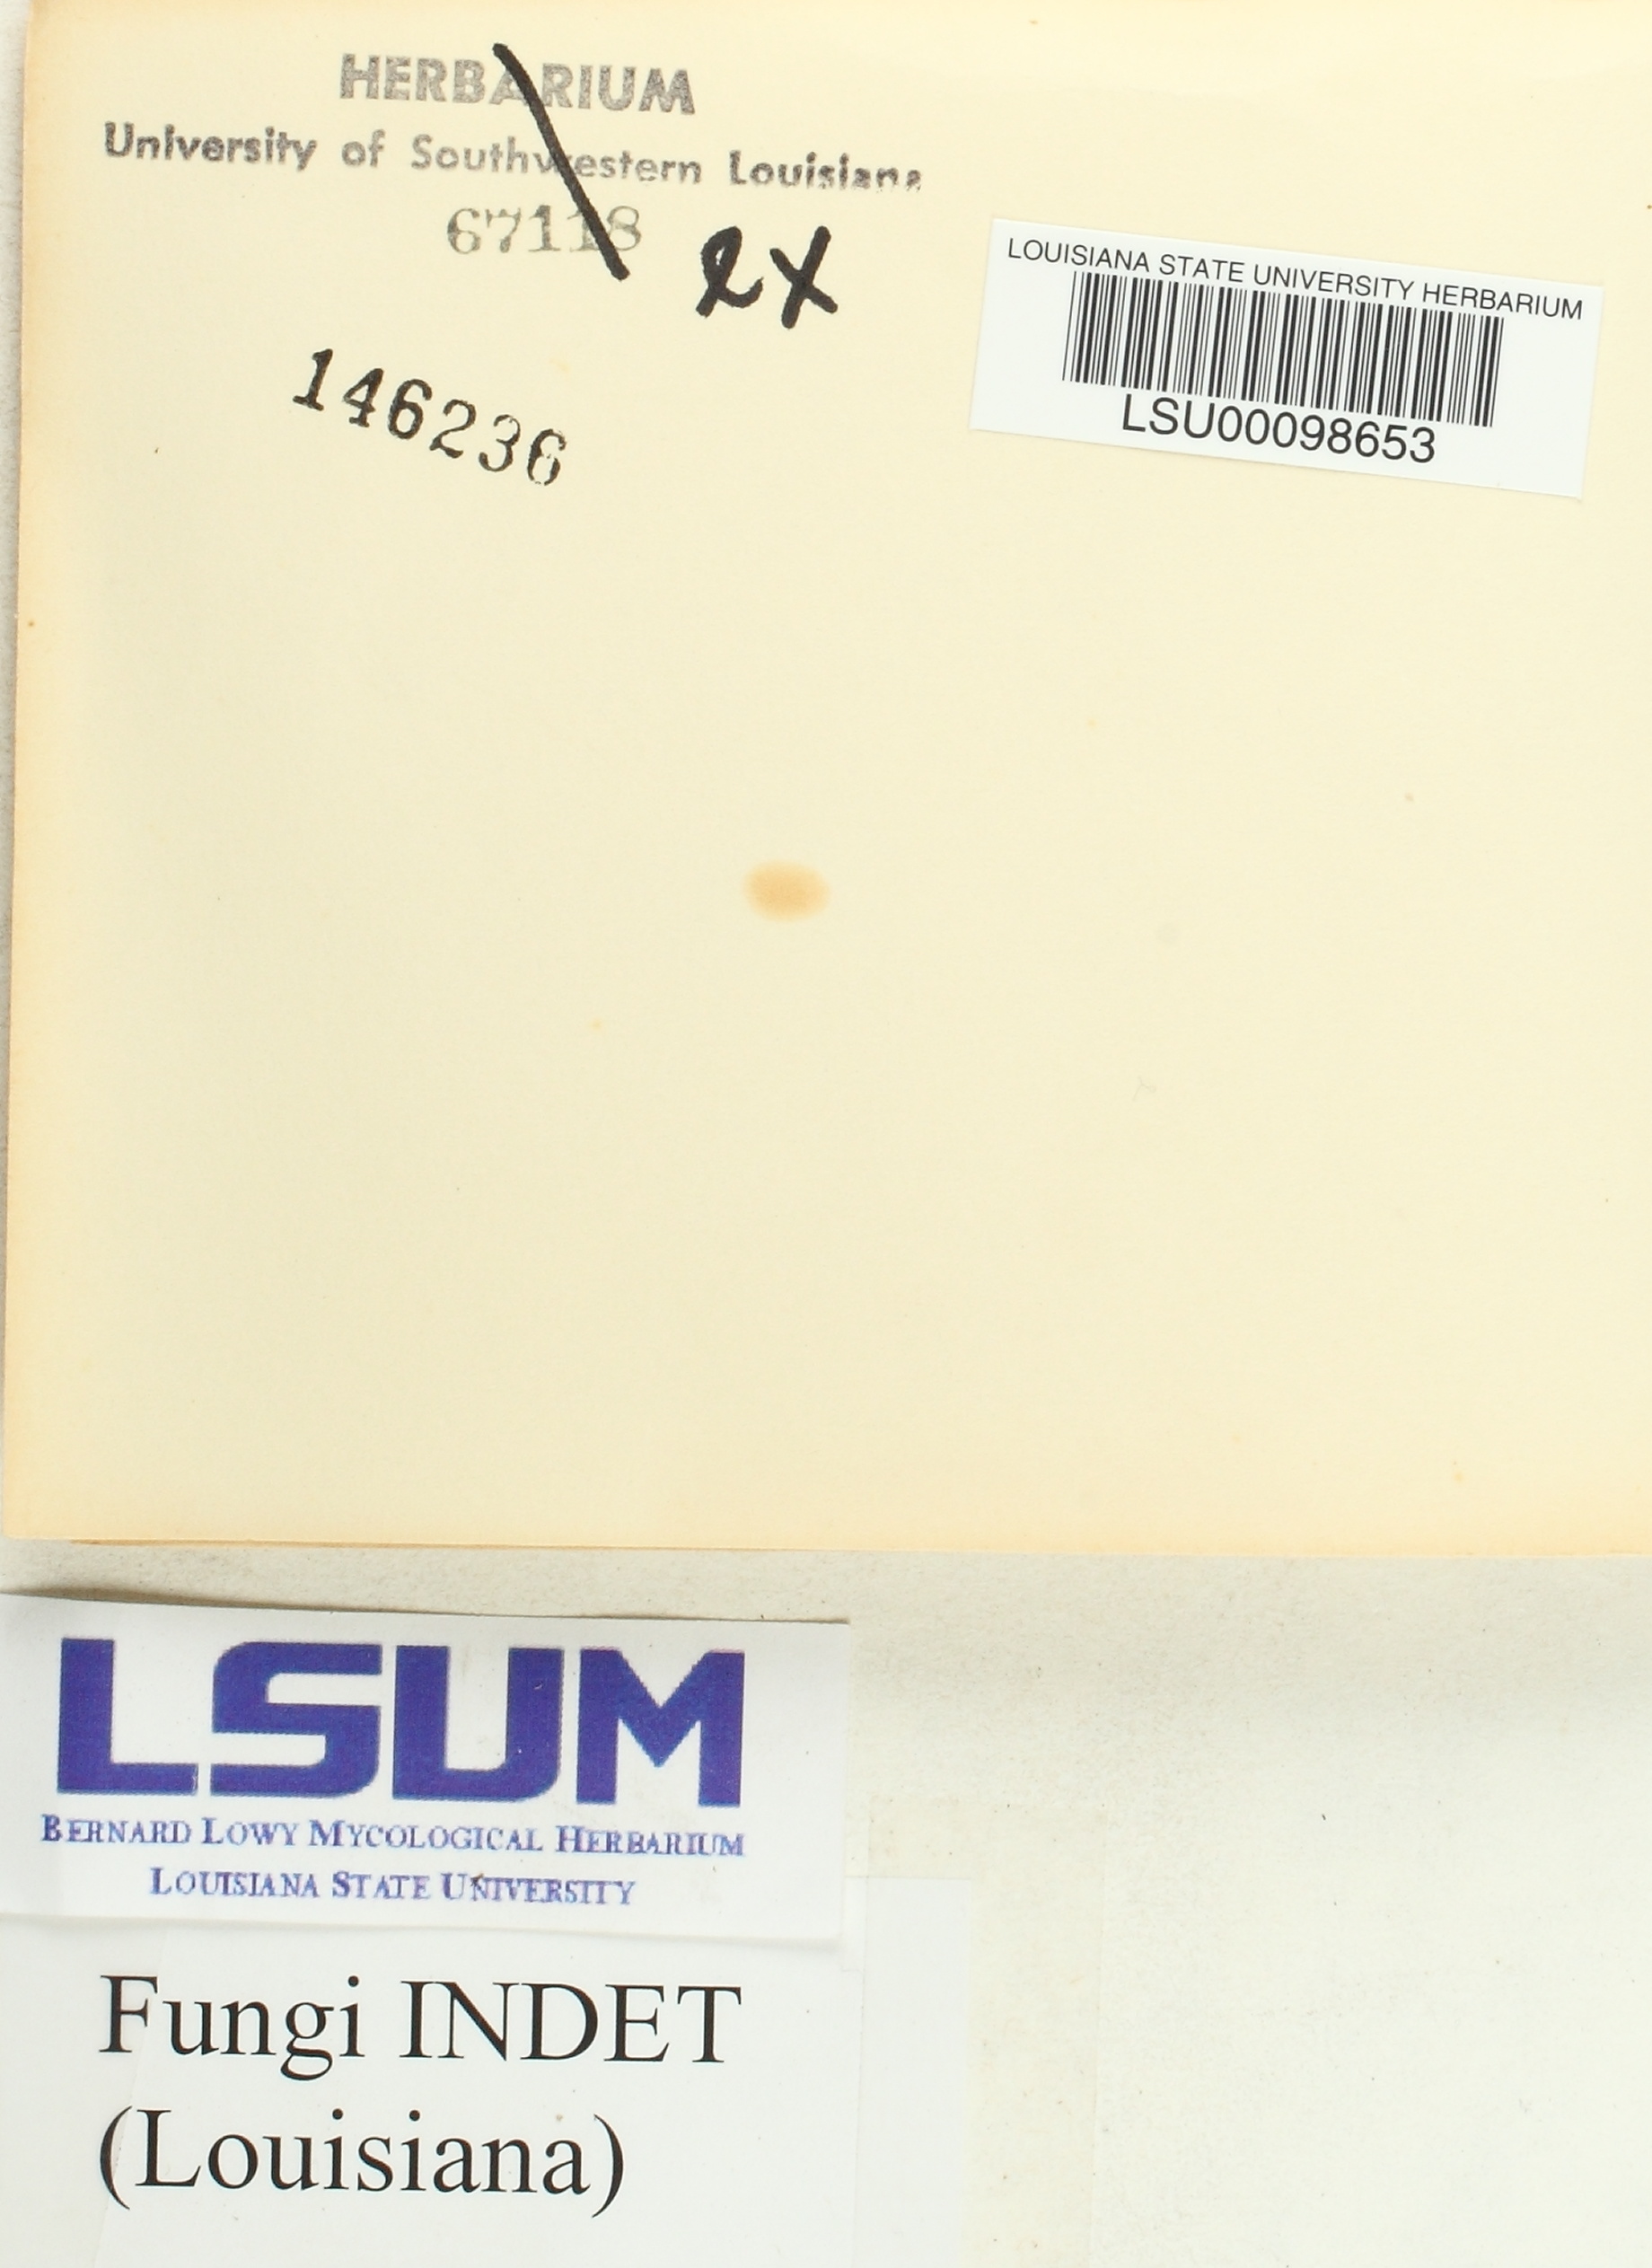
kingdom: Fungi
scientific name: Fungi
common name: Fungi
